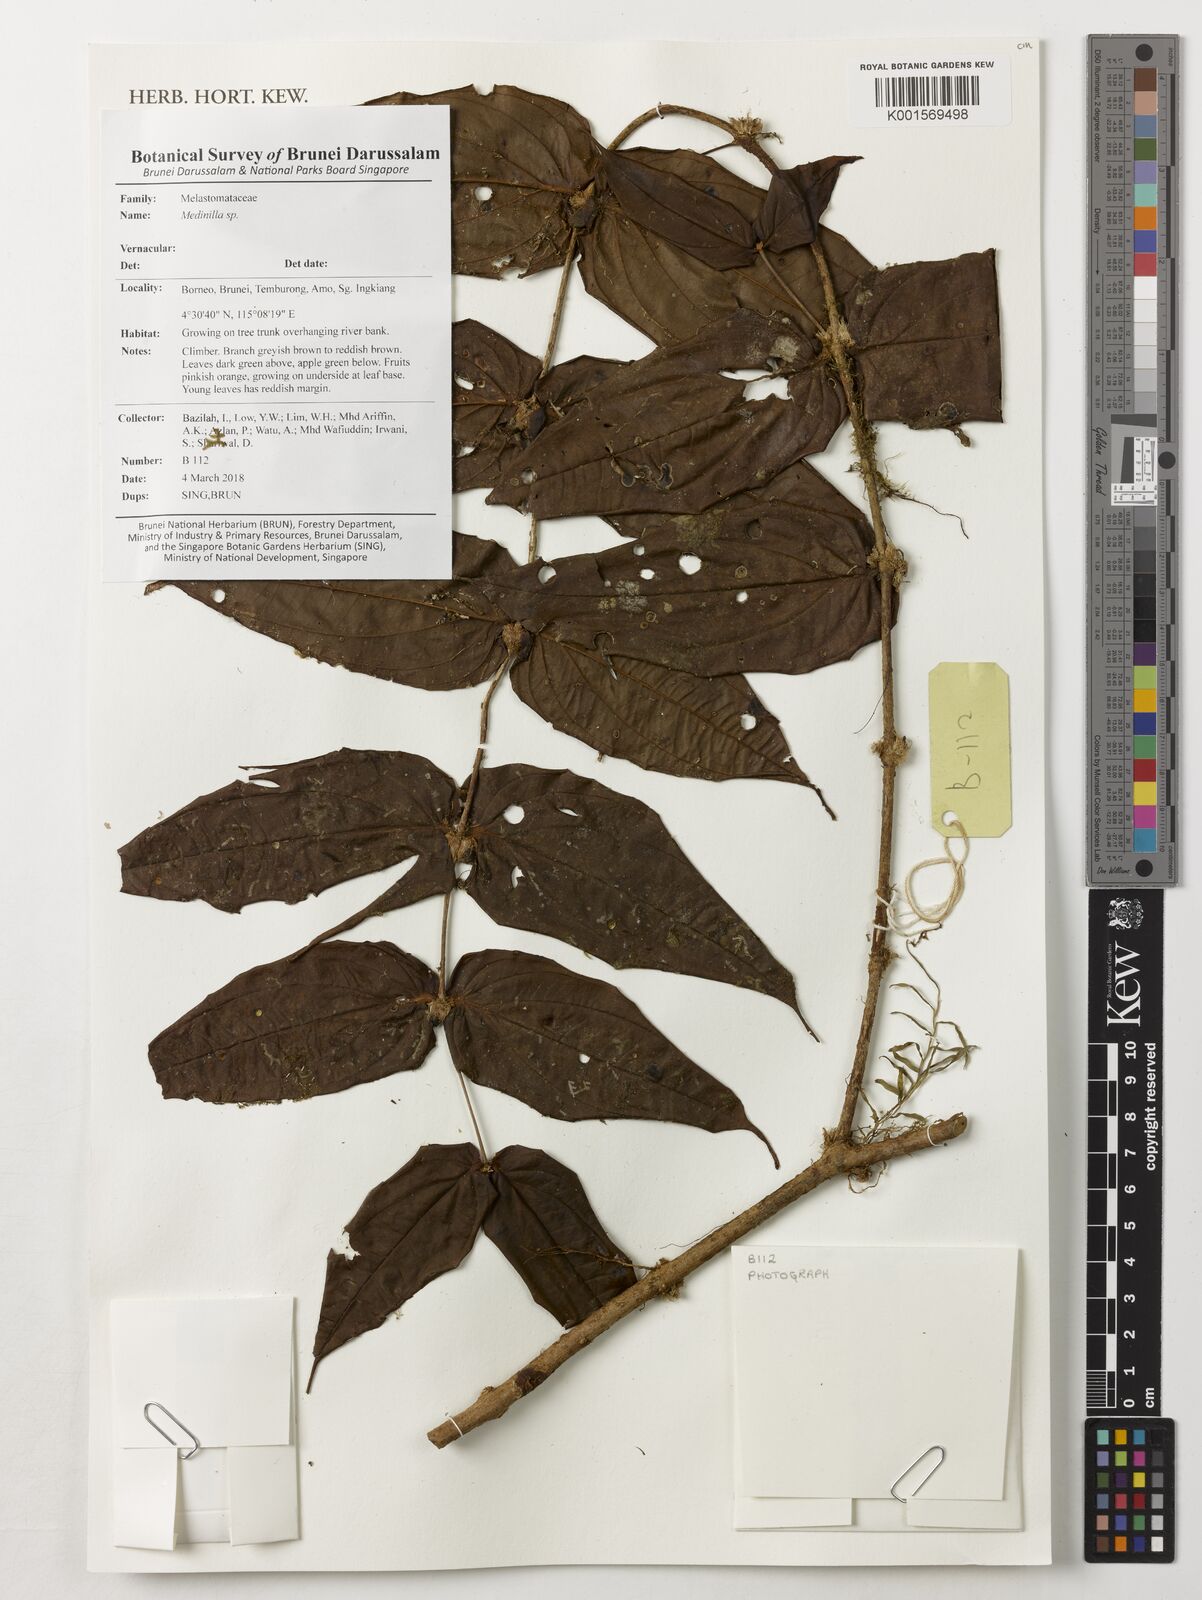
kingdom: Plantae
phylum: Tracheophyta
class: Magnoliopsida
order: Myrtales
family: Melastomataceae
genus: Medinilla
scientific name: Medinilla
